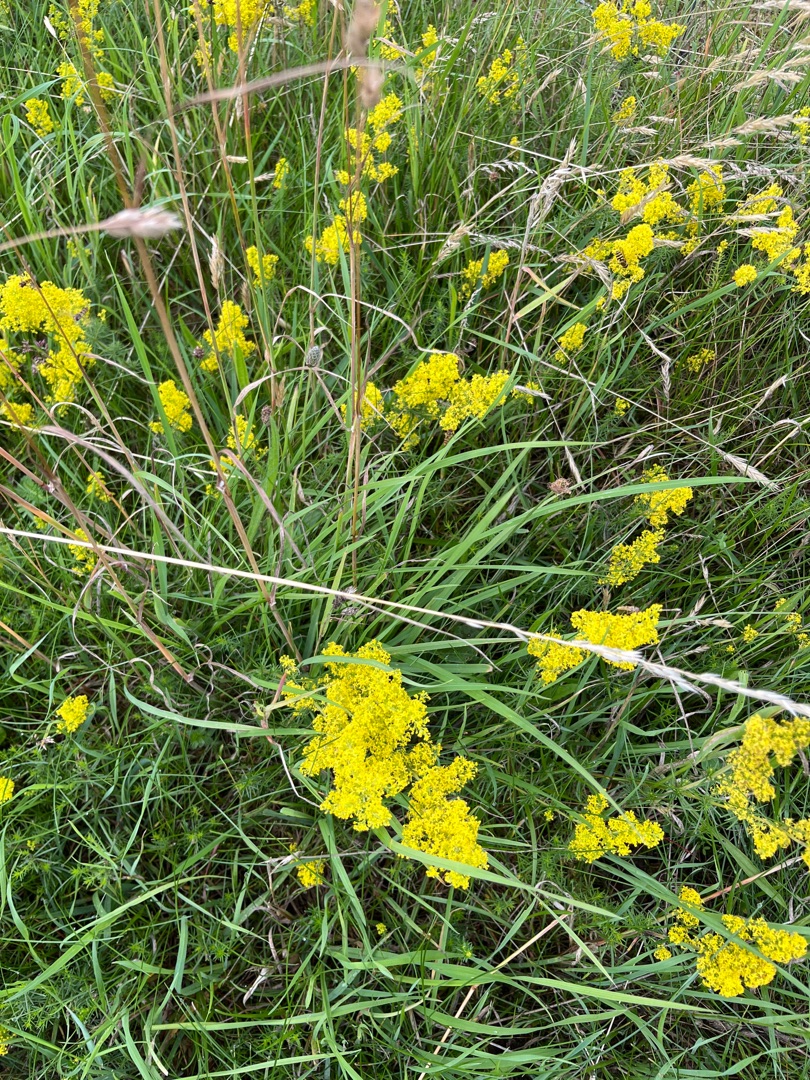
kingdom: Plantae
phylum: Tracheophyta
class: Magnoliopsida
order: Gentianales
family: Rubiaceae
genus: Galium
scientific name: Galium verum
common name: Gul snerre
